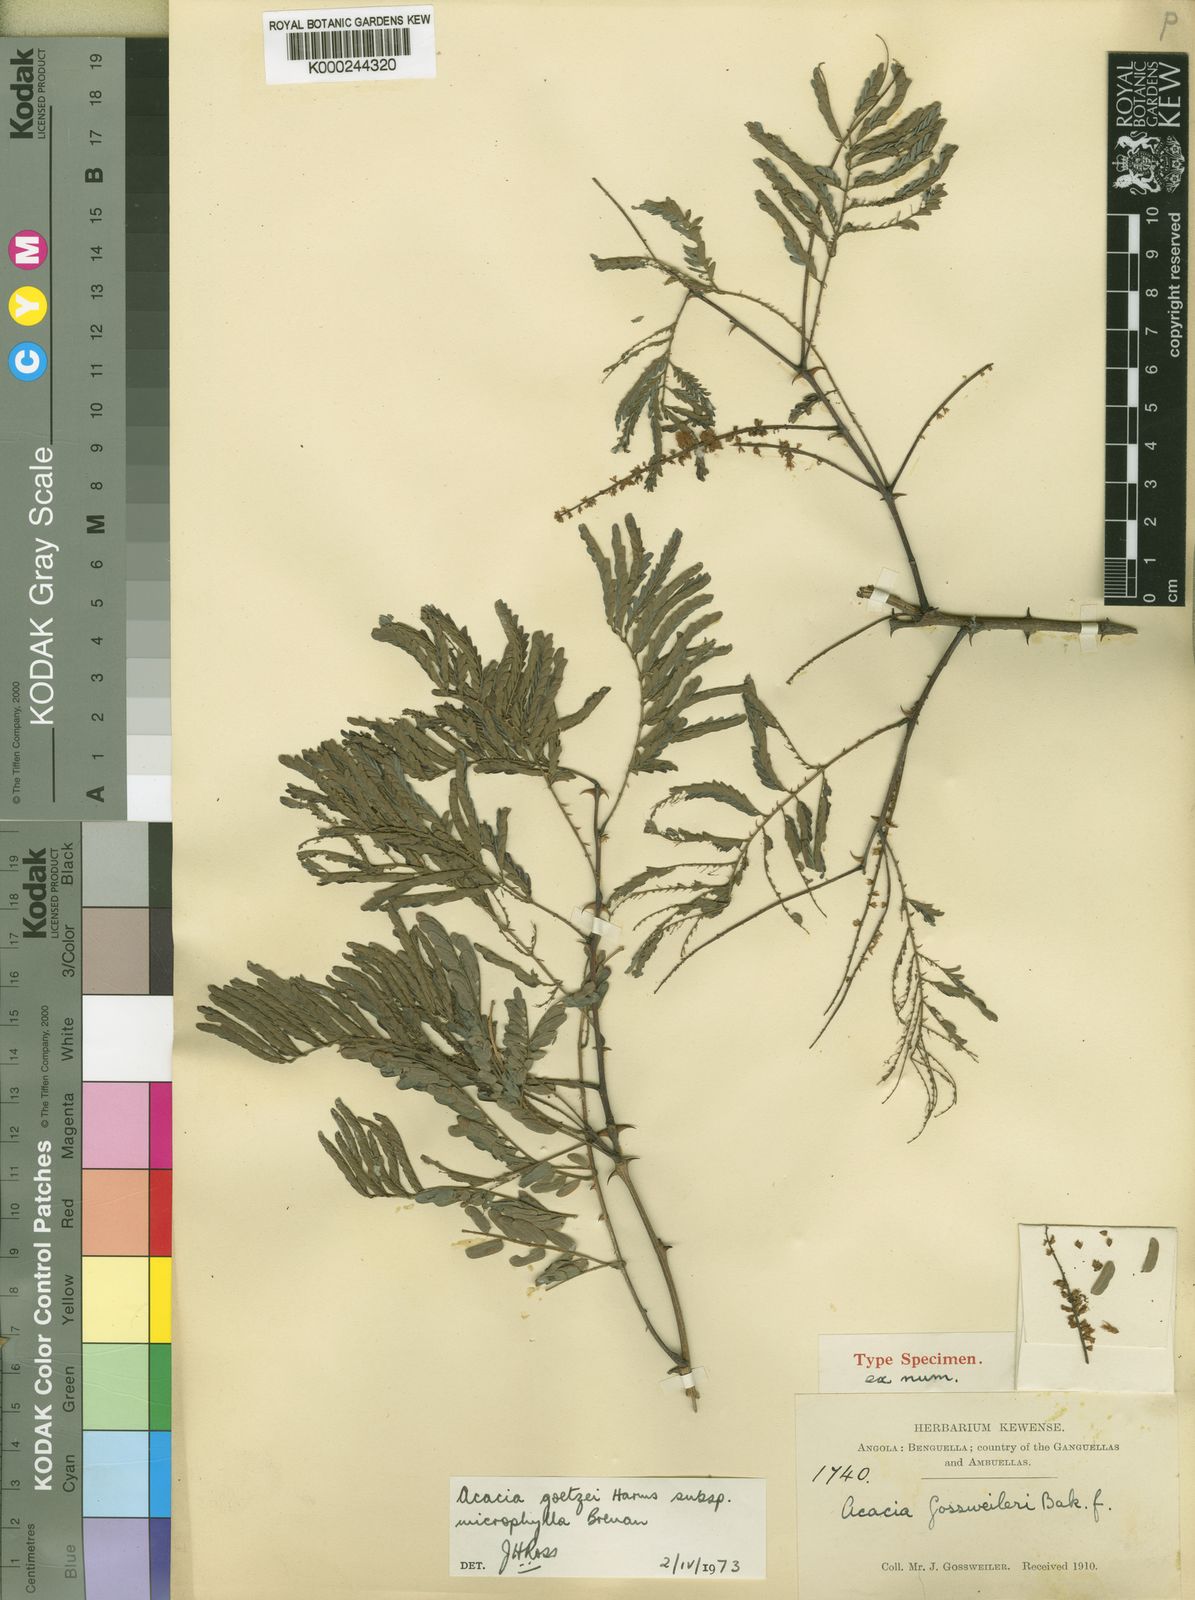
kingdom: Plantae
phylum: Tracheophyta
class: Magnoliopsida
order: Fabales
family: Fabaceae
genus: Senegalia
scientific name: Senegalia goetzei
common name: Purplepod acacia
